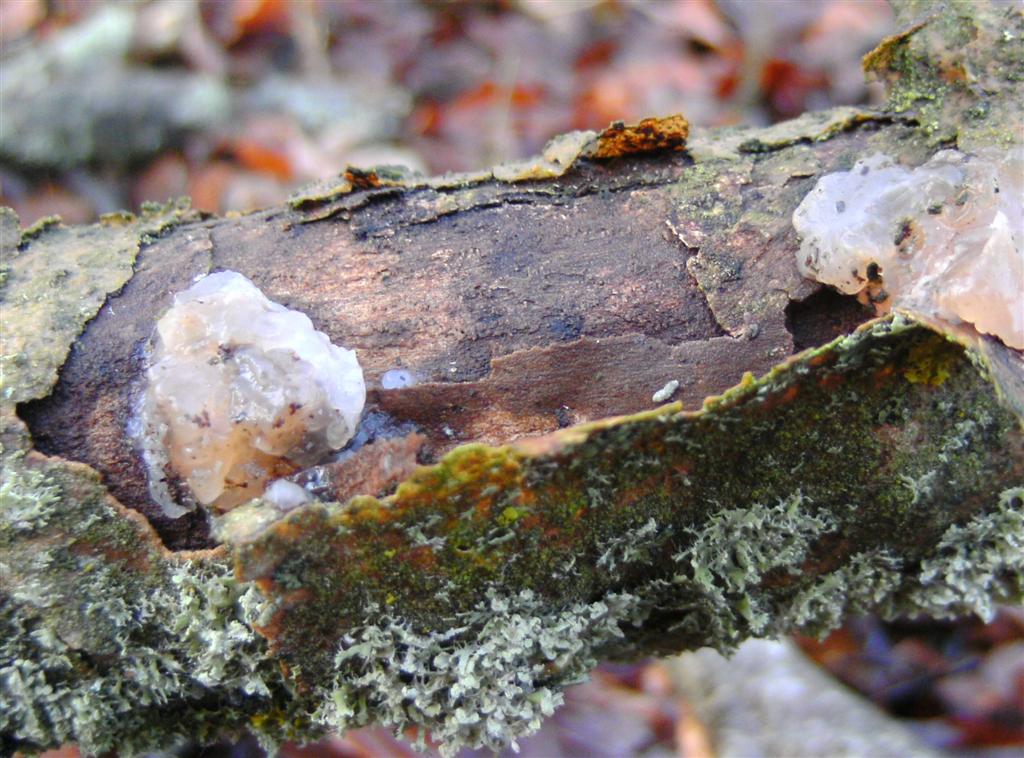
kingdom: Fungi
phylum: Basidiomycota
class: Agaricomycetes
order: Auriculariales
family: Hyaloriaceae
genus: Myxarium
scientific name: Myxarium nucleatum
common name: klar bævretop
